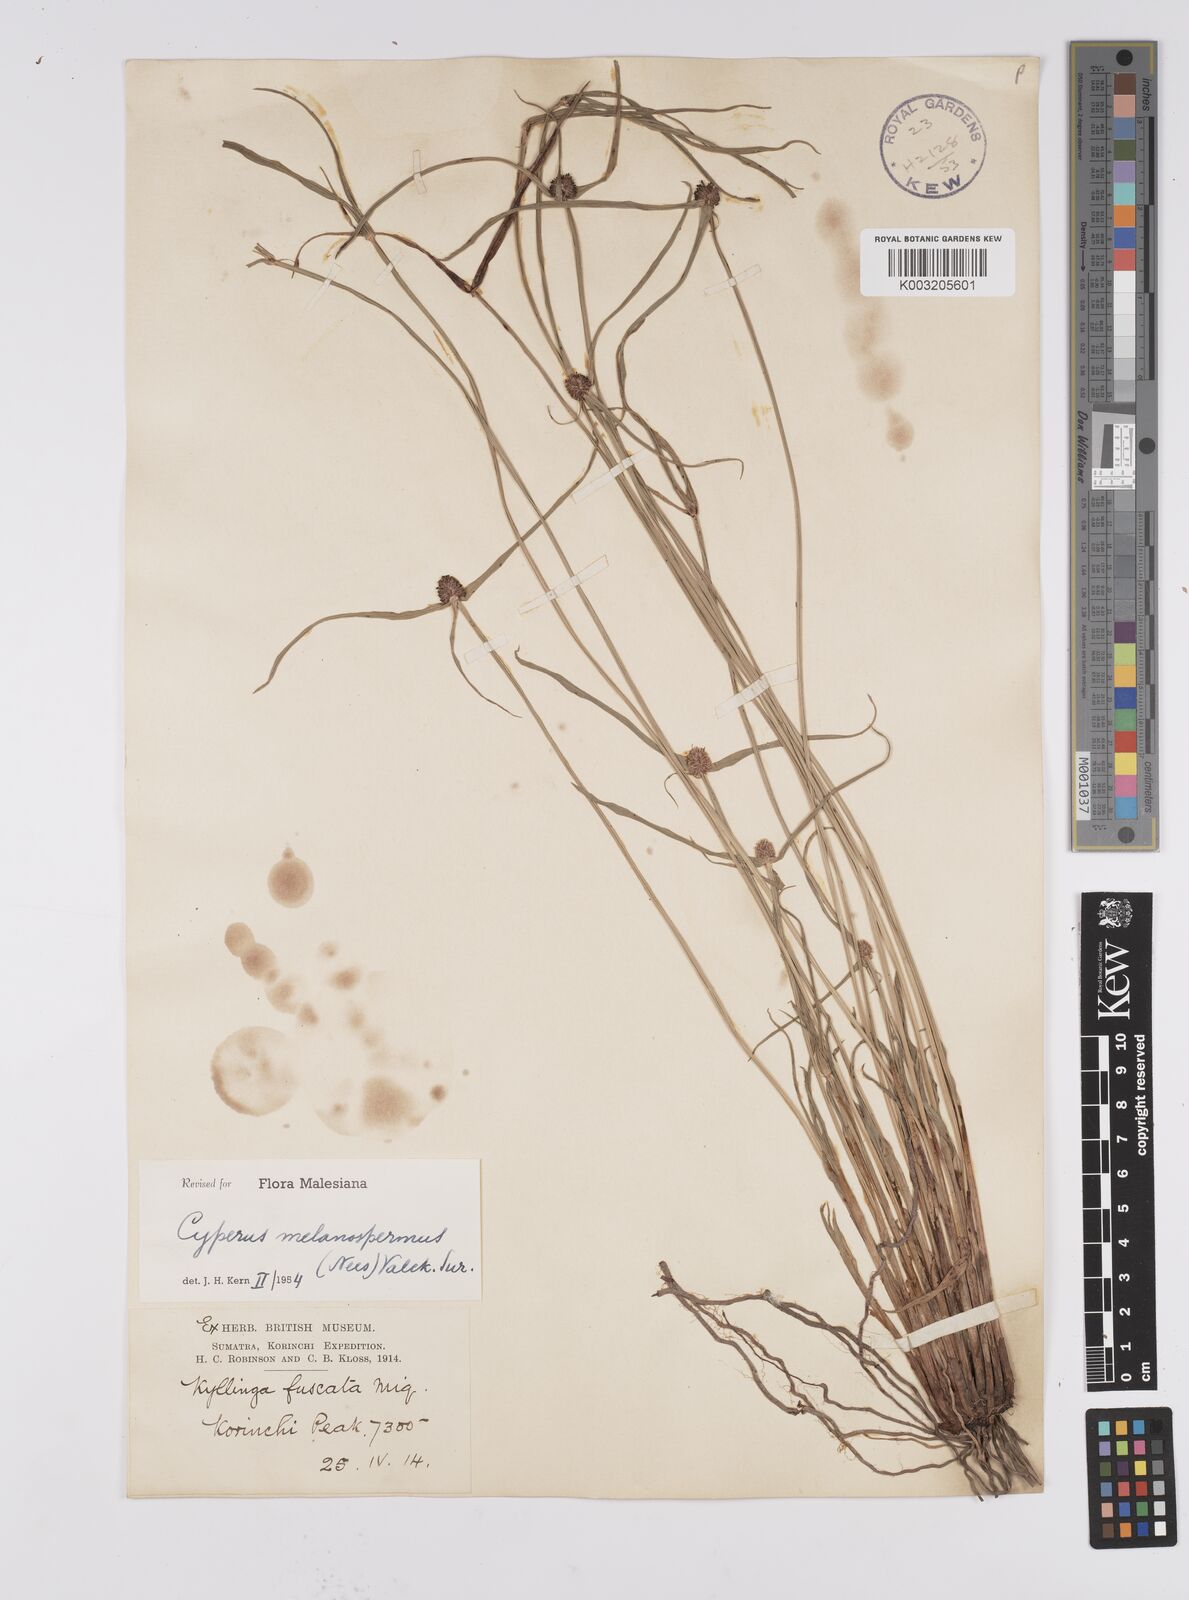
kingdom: Plantae
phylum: Tracheophyta
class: Liliopsida
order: Poales
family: Cyperaceae
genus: Cyperus
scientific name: Cyperus melanospermus
